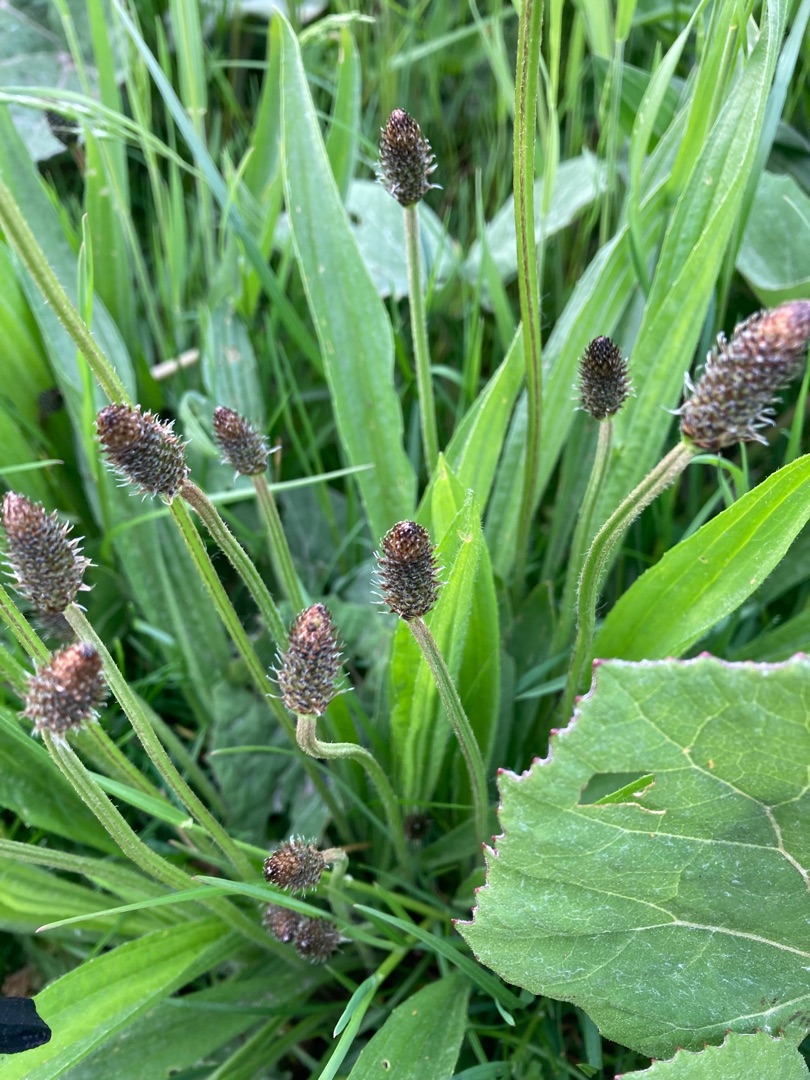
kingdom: Plantae
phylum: Tracheophyta
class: Magnoliopsida
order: Lamiales
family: Plantaginaceae
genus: Plantago
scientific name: Plantago lanceolata
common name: Lancet-vejbred
